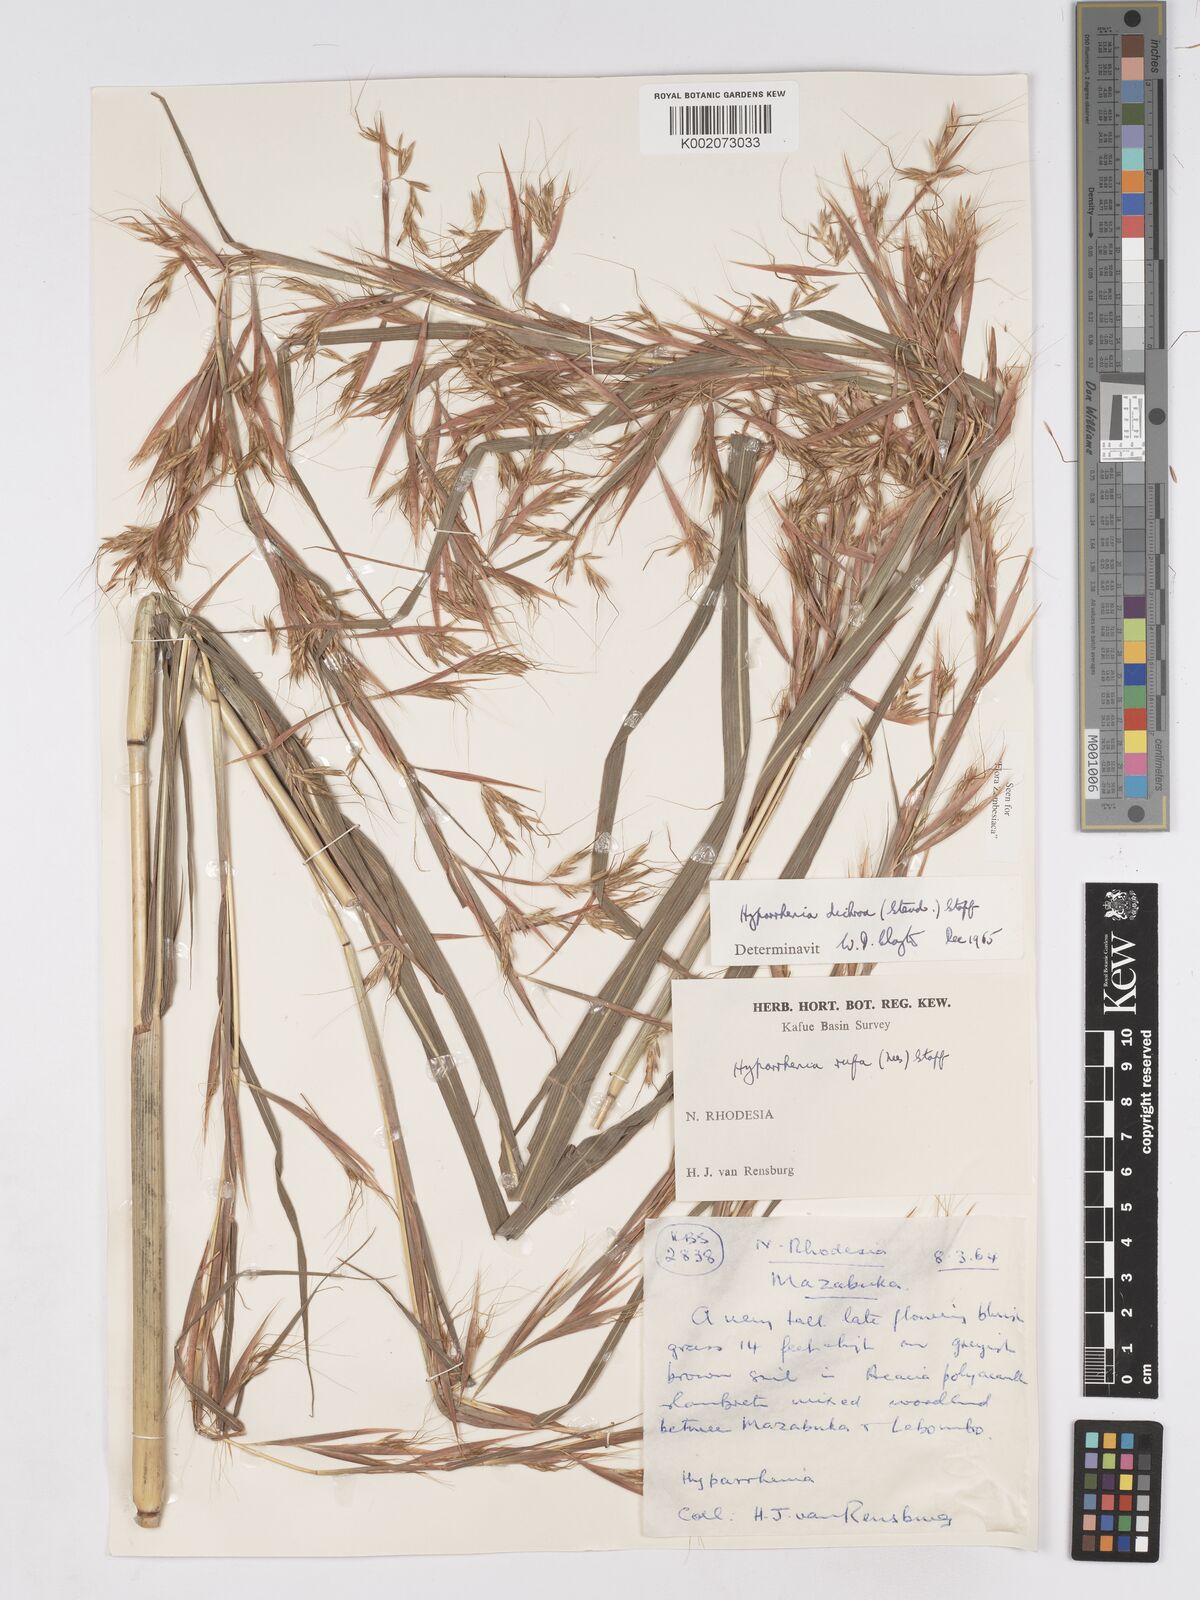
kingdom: Plantae
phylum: Tracheophyta
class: Liliopsida
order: Poales
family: Poaceae
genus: Hyparrhenia
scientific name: Hyparrhenia dichroa
